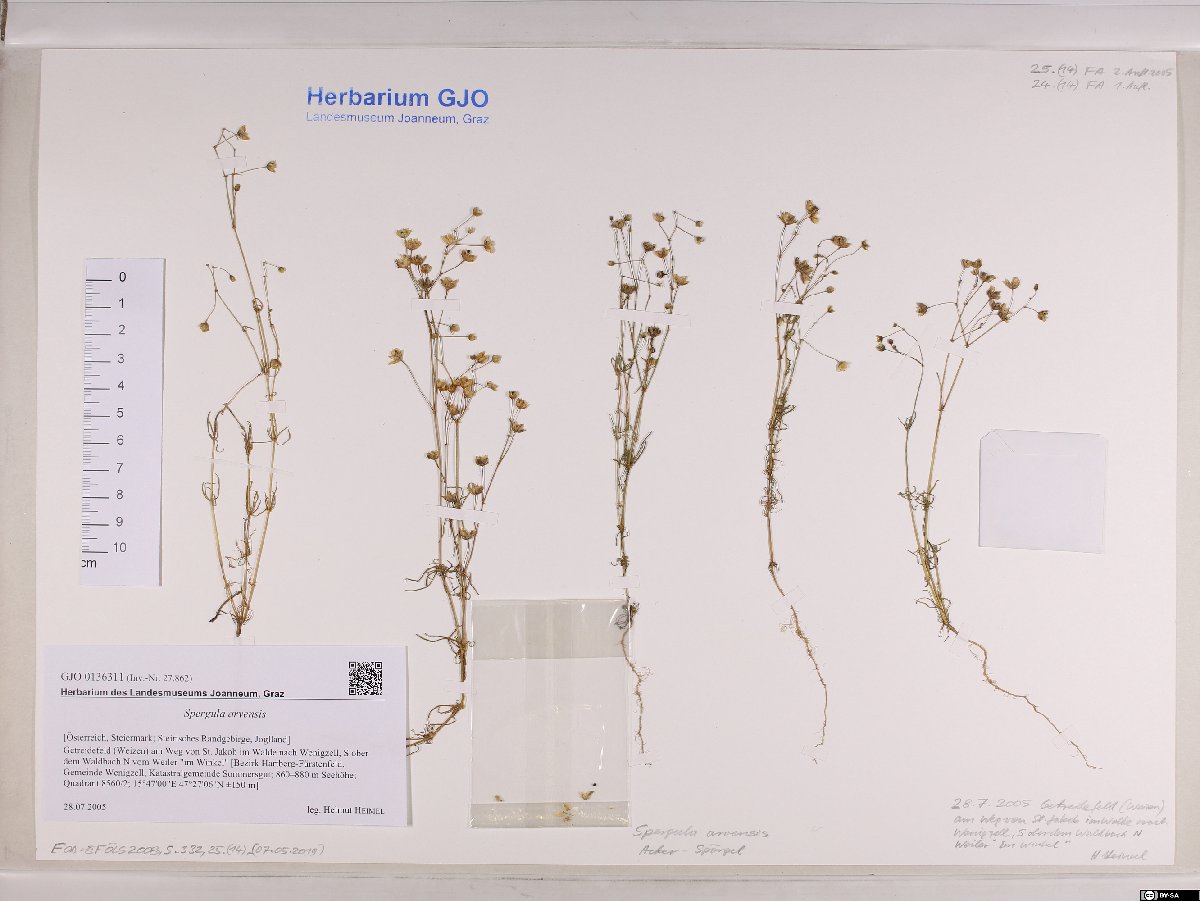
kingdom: Plantae
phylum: Tracheophyta
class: Magnoliopsida
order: Caryophyllales
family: Caryophyllaceae
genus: Spergula
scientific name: Spergula arvensis
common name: Corn spurrey
